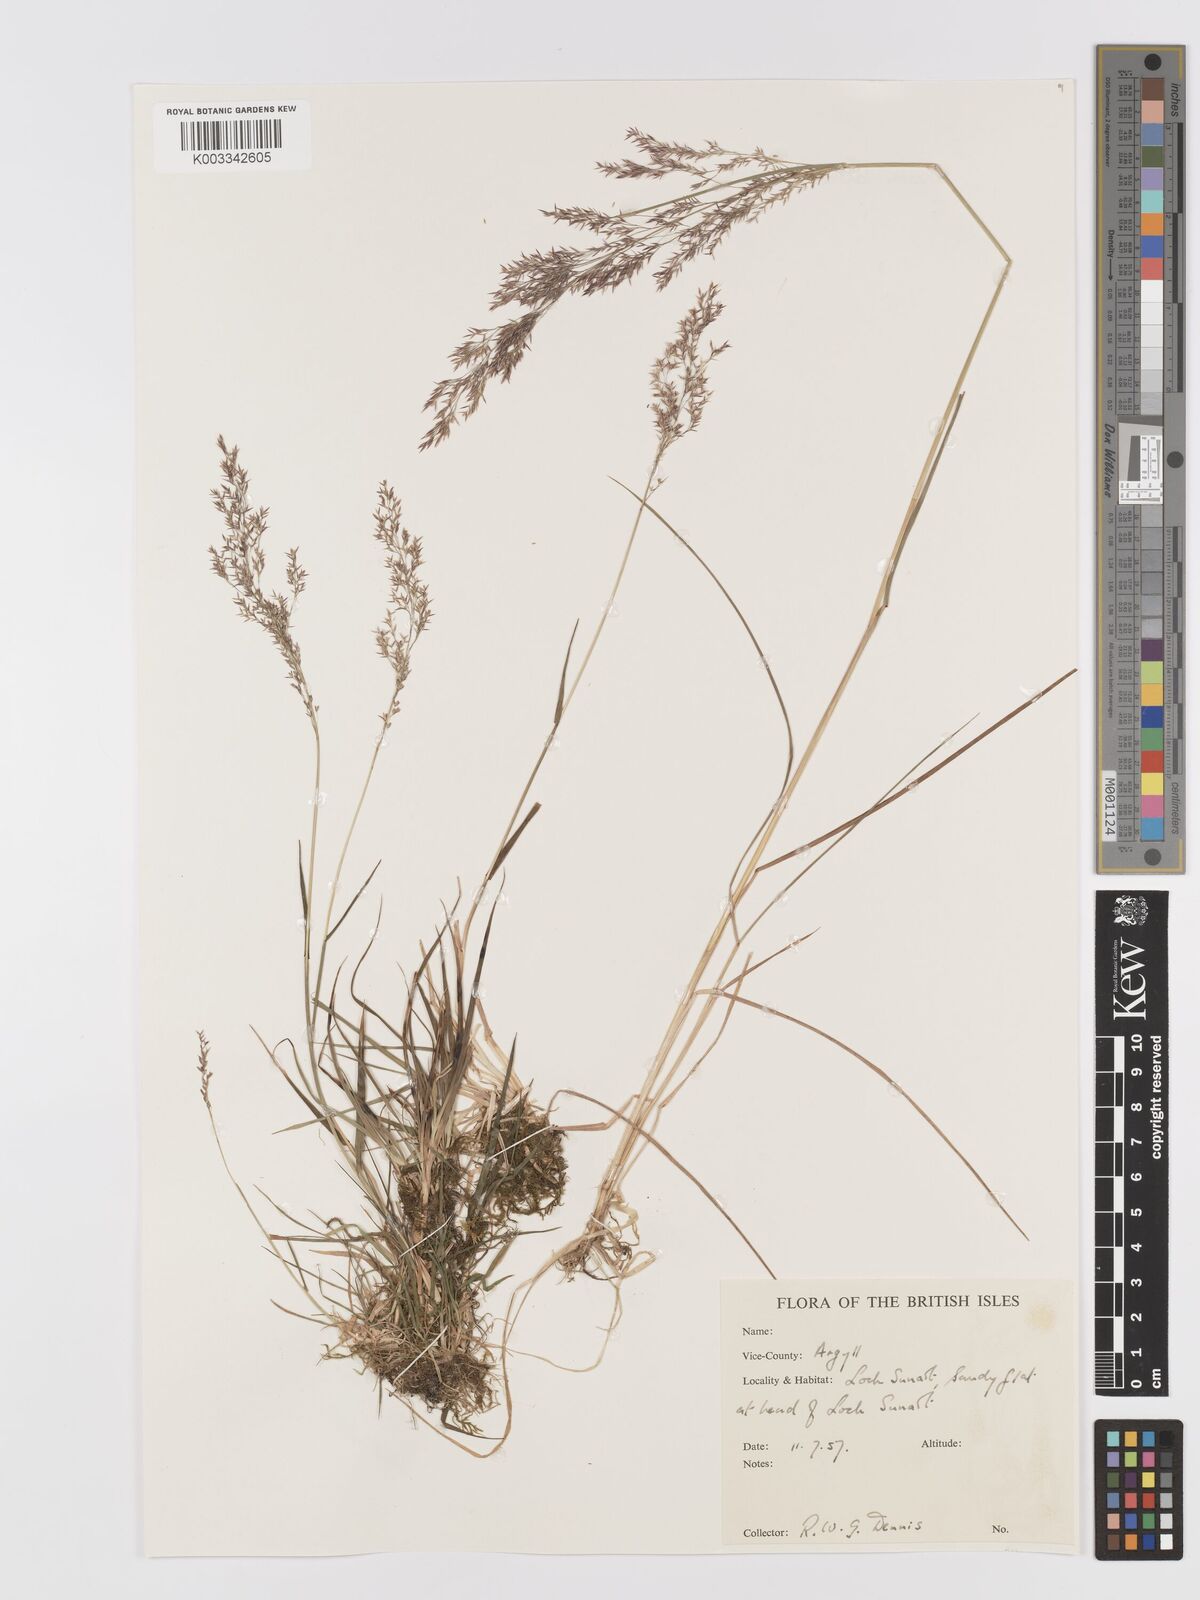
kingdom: Plantae
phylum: Tracheophyta
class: Liliopsida
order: Poales
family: Poaceae
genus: Agrostis
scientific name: Agrostis
